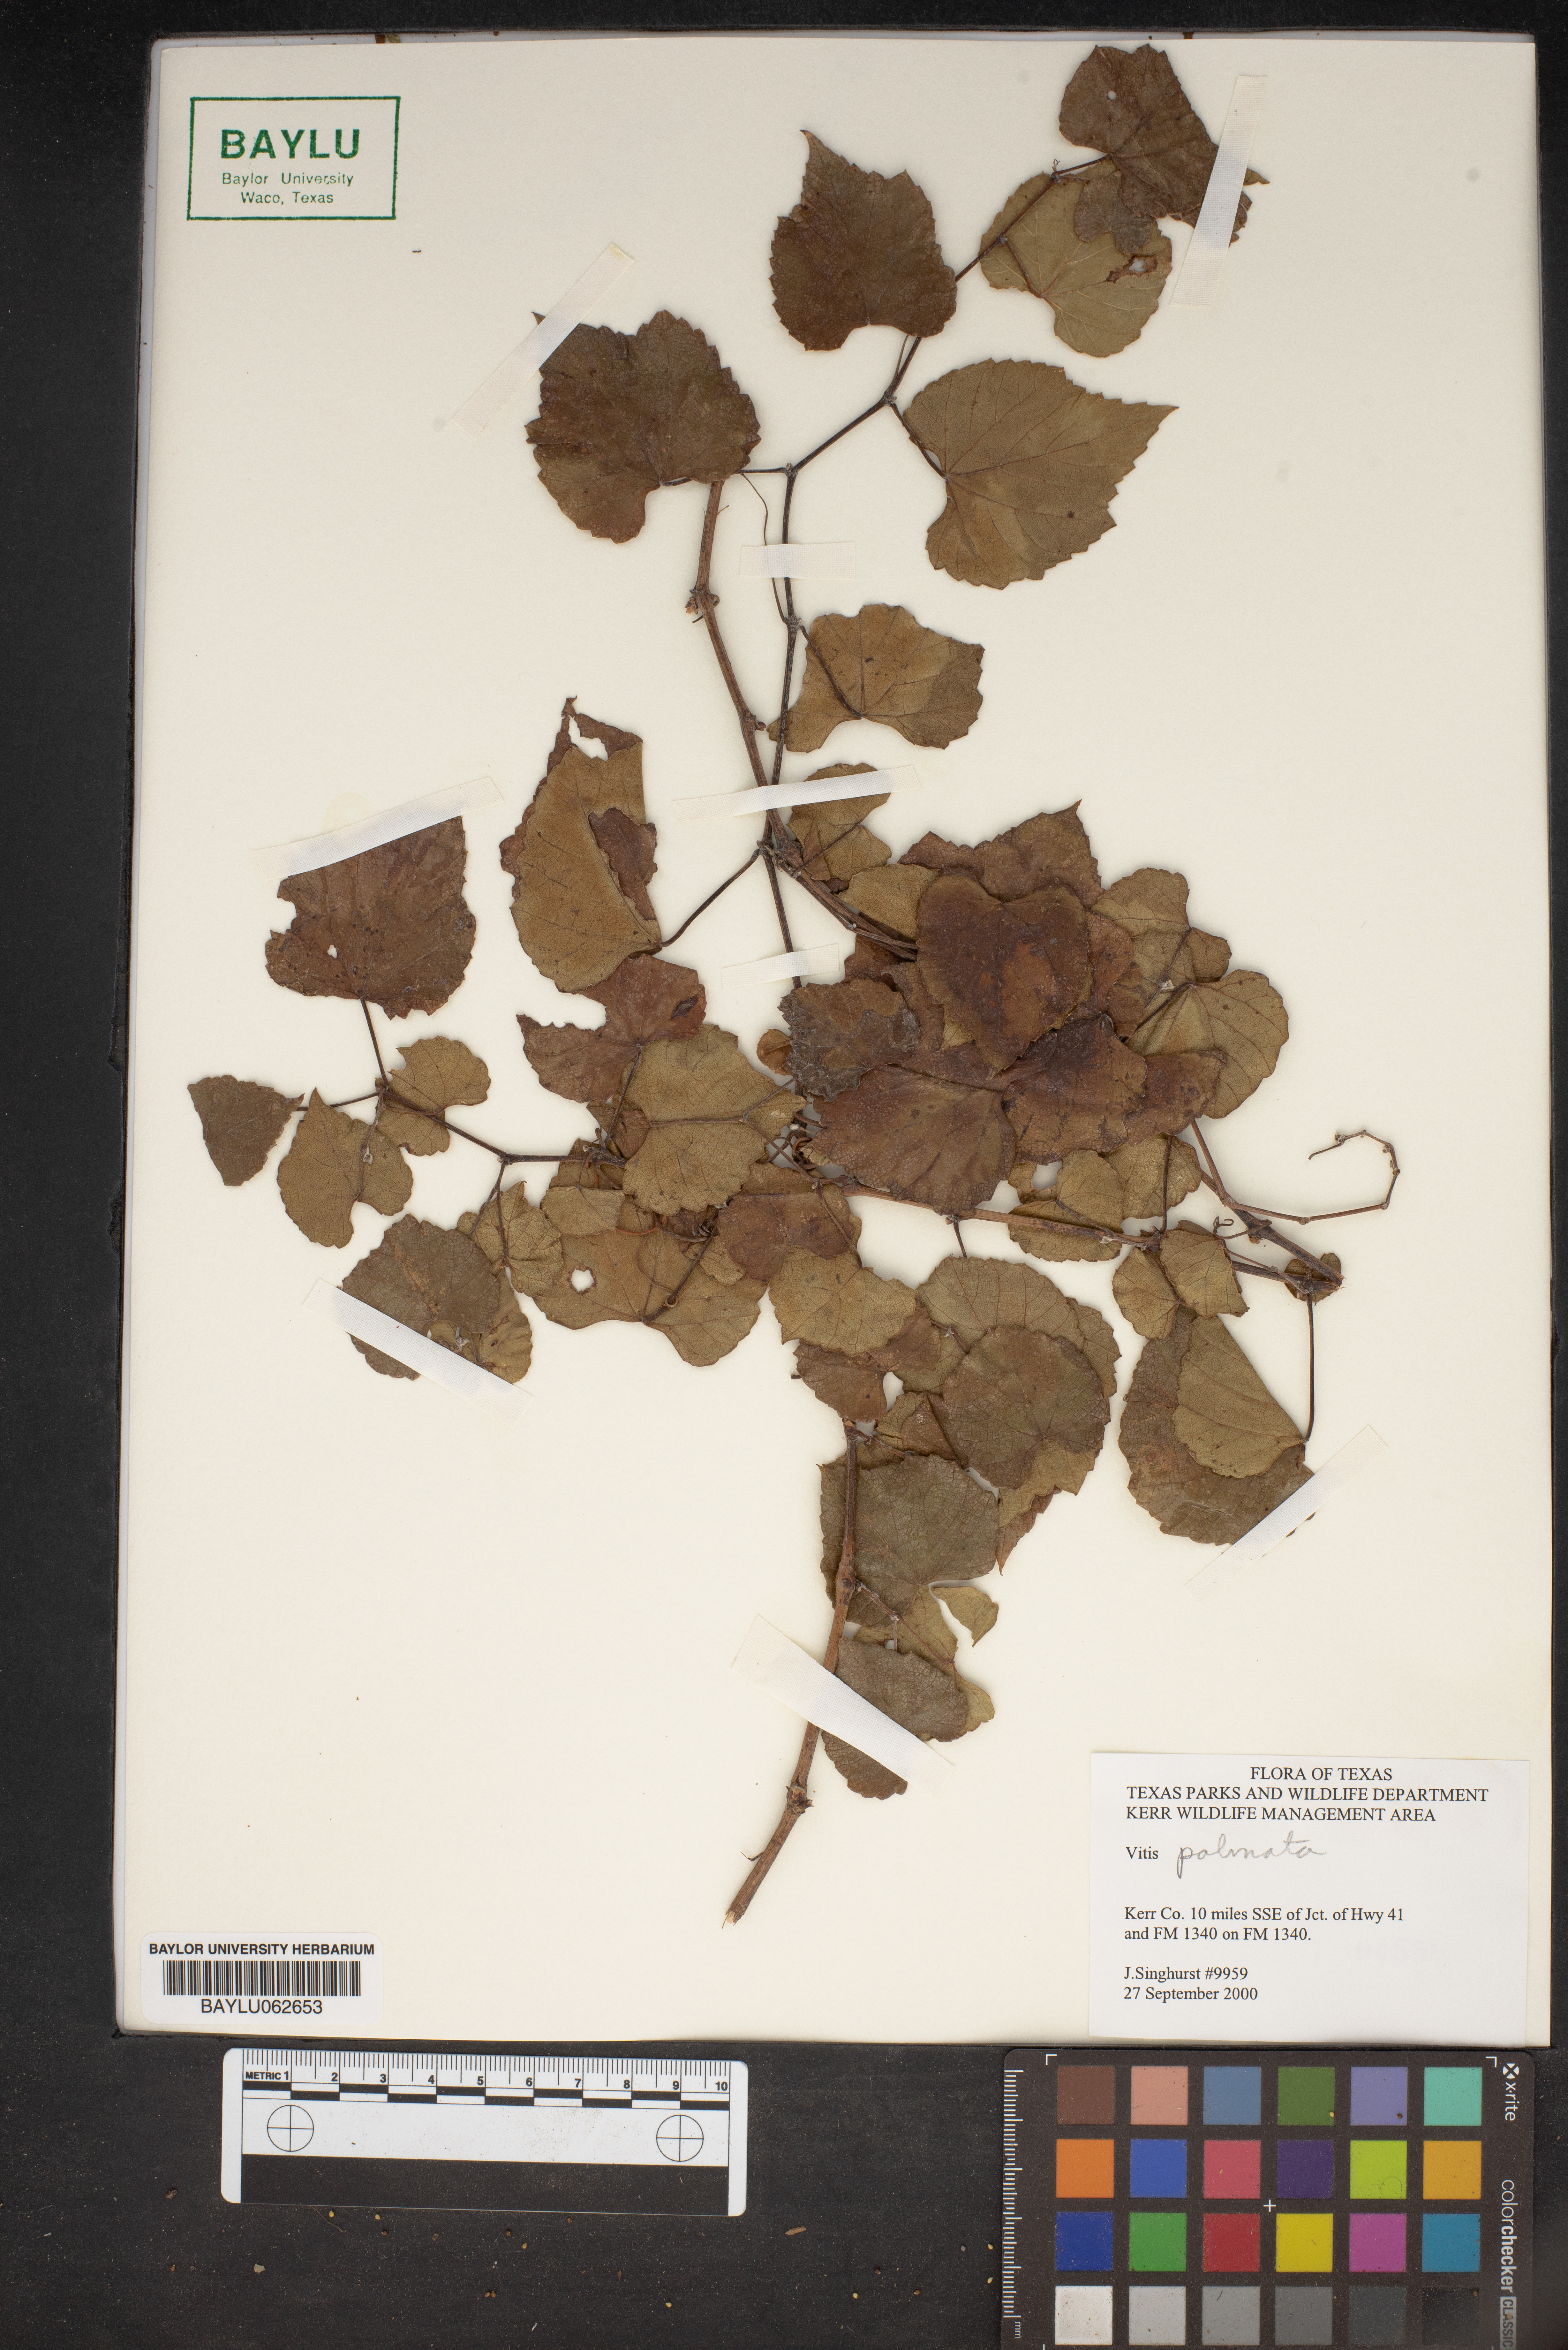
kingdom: Plantae
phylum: Tracheophyta
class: Magnoliopsida
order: Vitales
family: Vitaceae
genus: Vitis
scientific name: Vitis palmata
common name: Catbird grape
